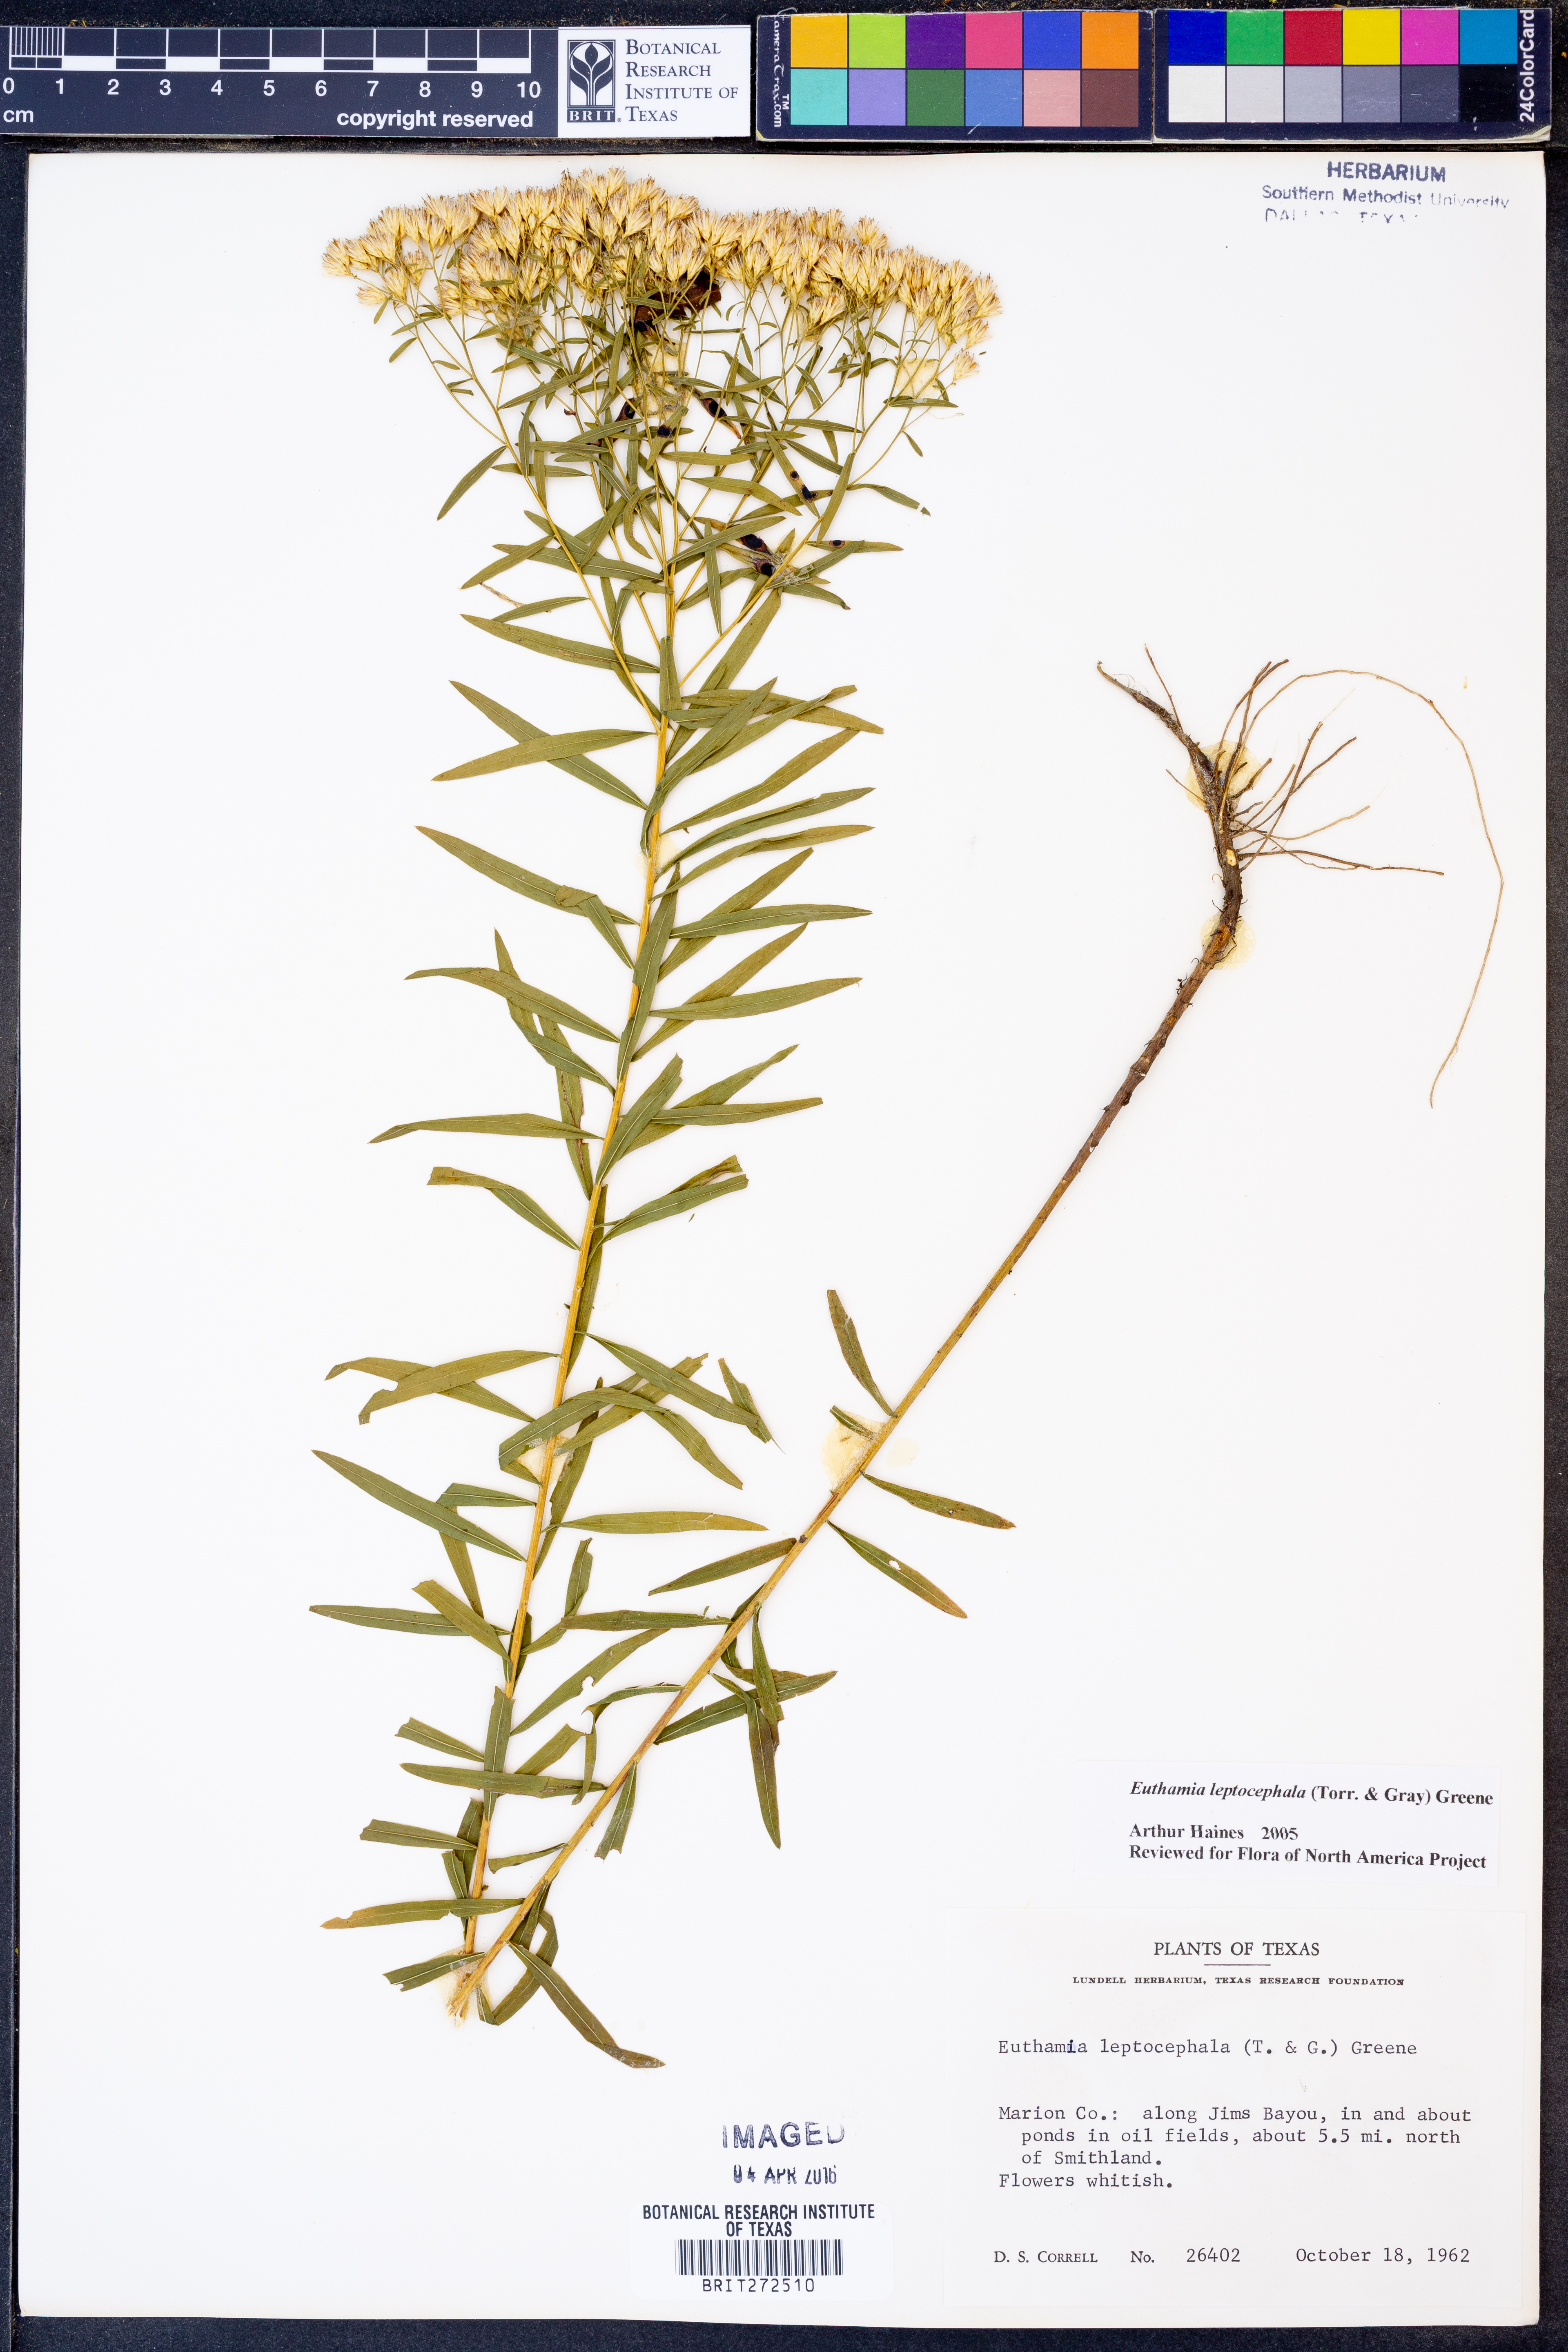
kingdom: Plantae
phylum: Tracheophyta
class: Magnoliopsida
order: Asterales
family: Asteraceae
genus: Euthamia
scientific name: Euthamia leptocephala
